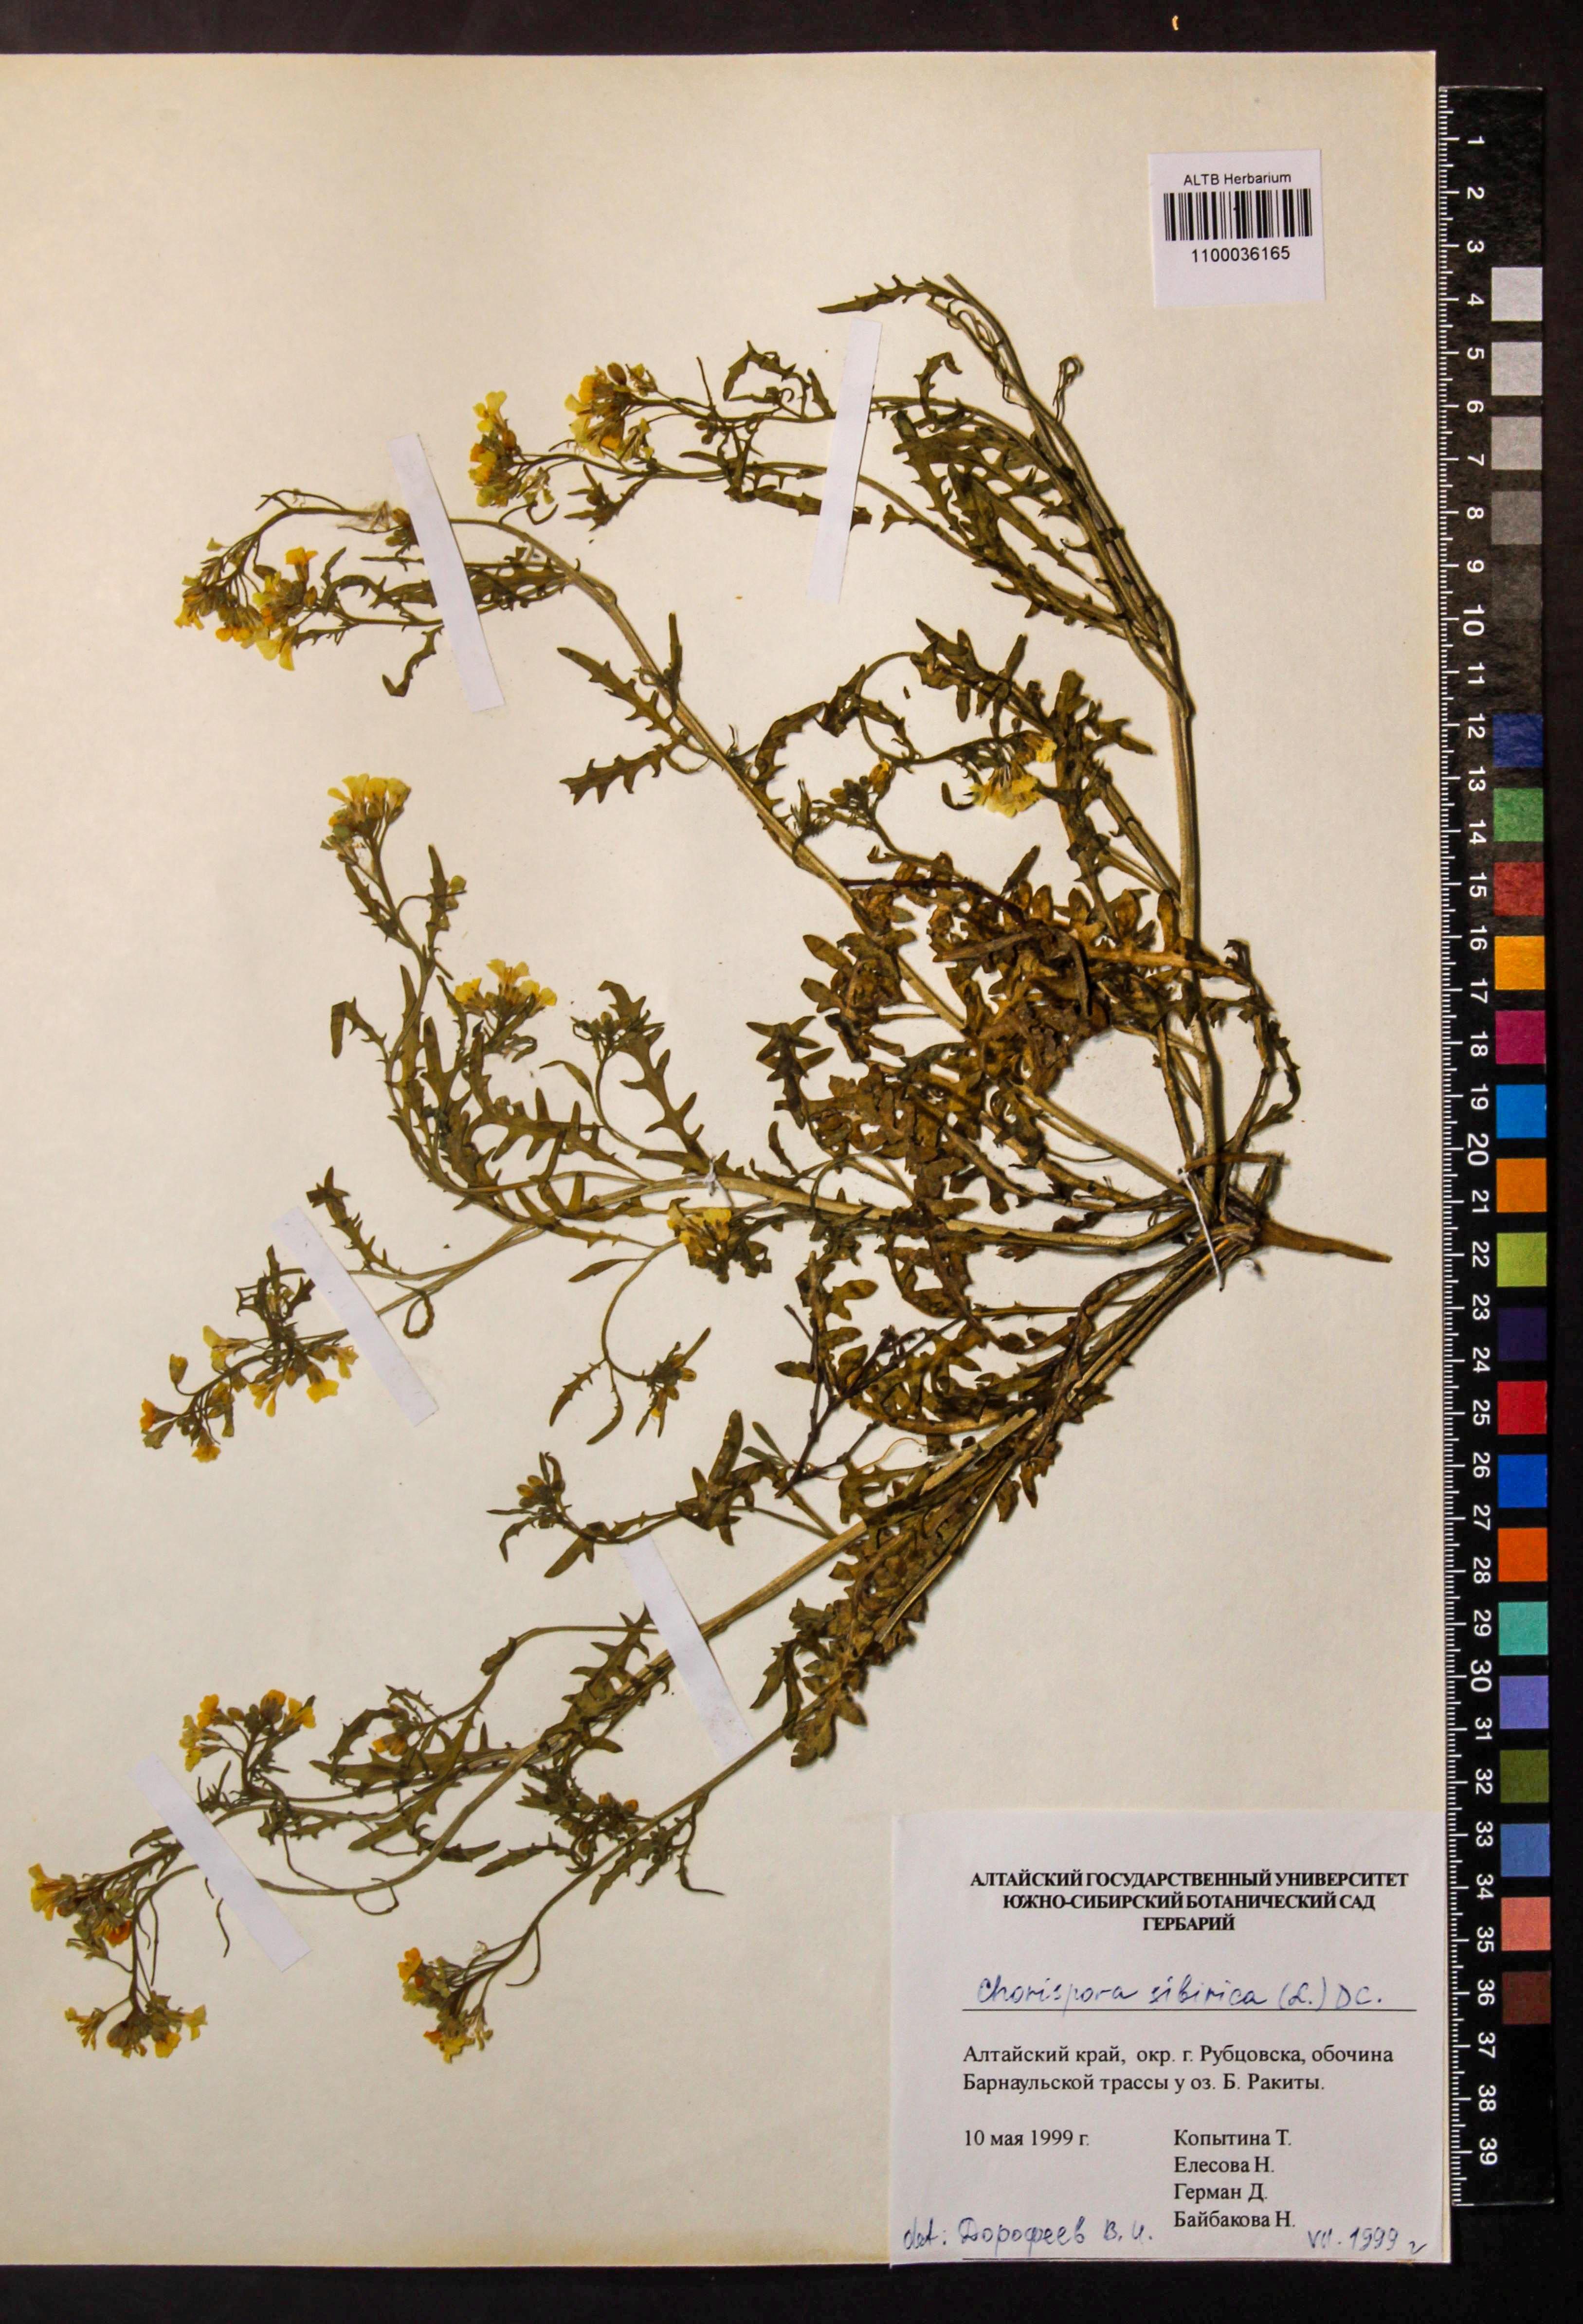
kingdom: Plantae
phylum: Tracheophyta
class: Magnoliopsida
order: Brassicales
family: Brassicaceae
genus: Chorispora
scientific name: Chorispora sibirica
